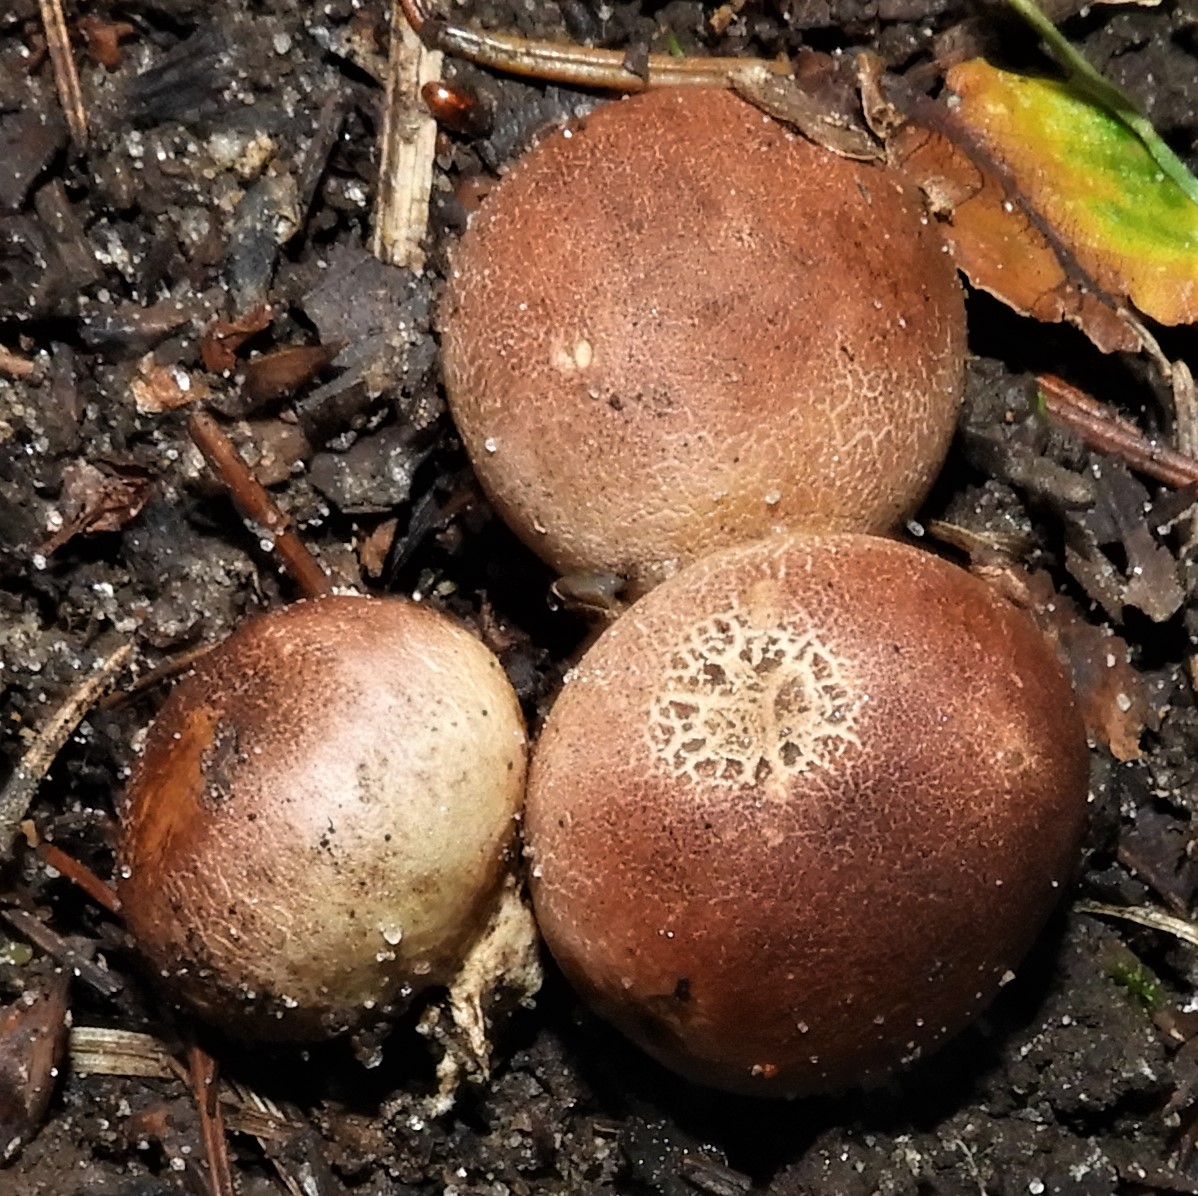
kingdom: Fungi
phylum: Basidiomycota
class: Agaricomycetes
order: Boletales
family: Sclerodermataceae
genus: Scleroderma
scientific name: Scleroderma
